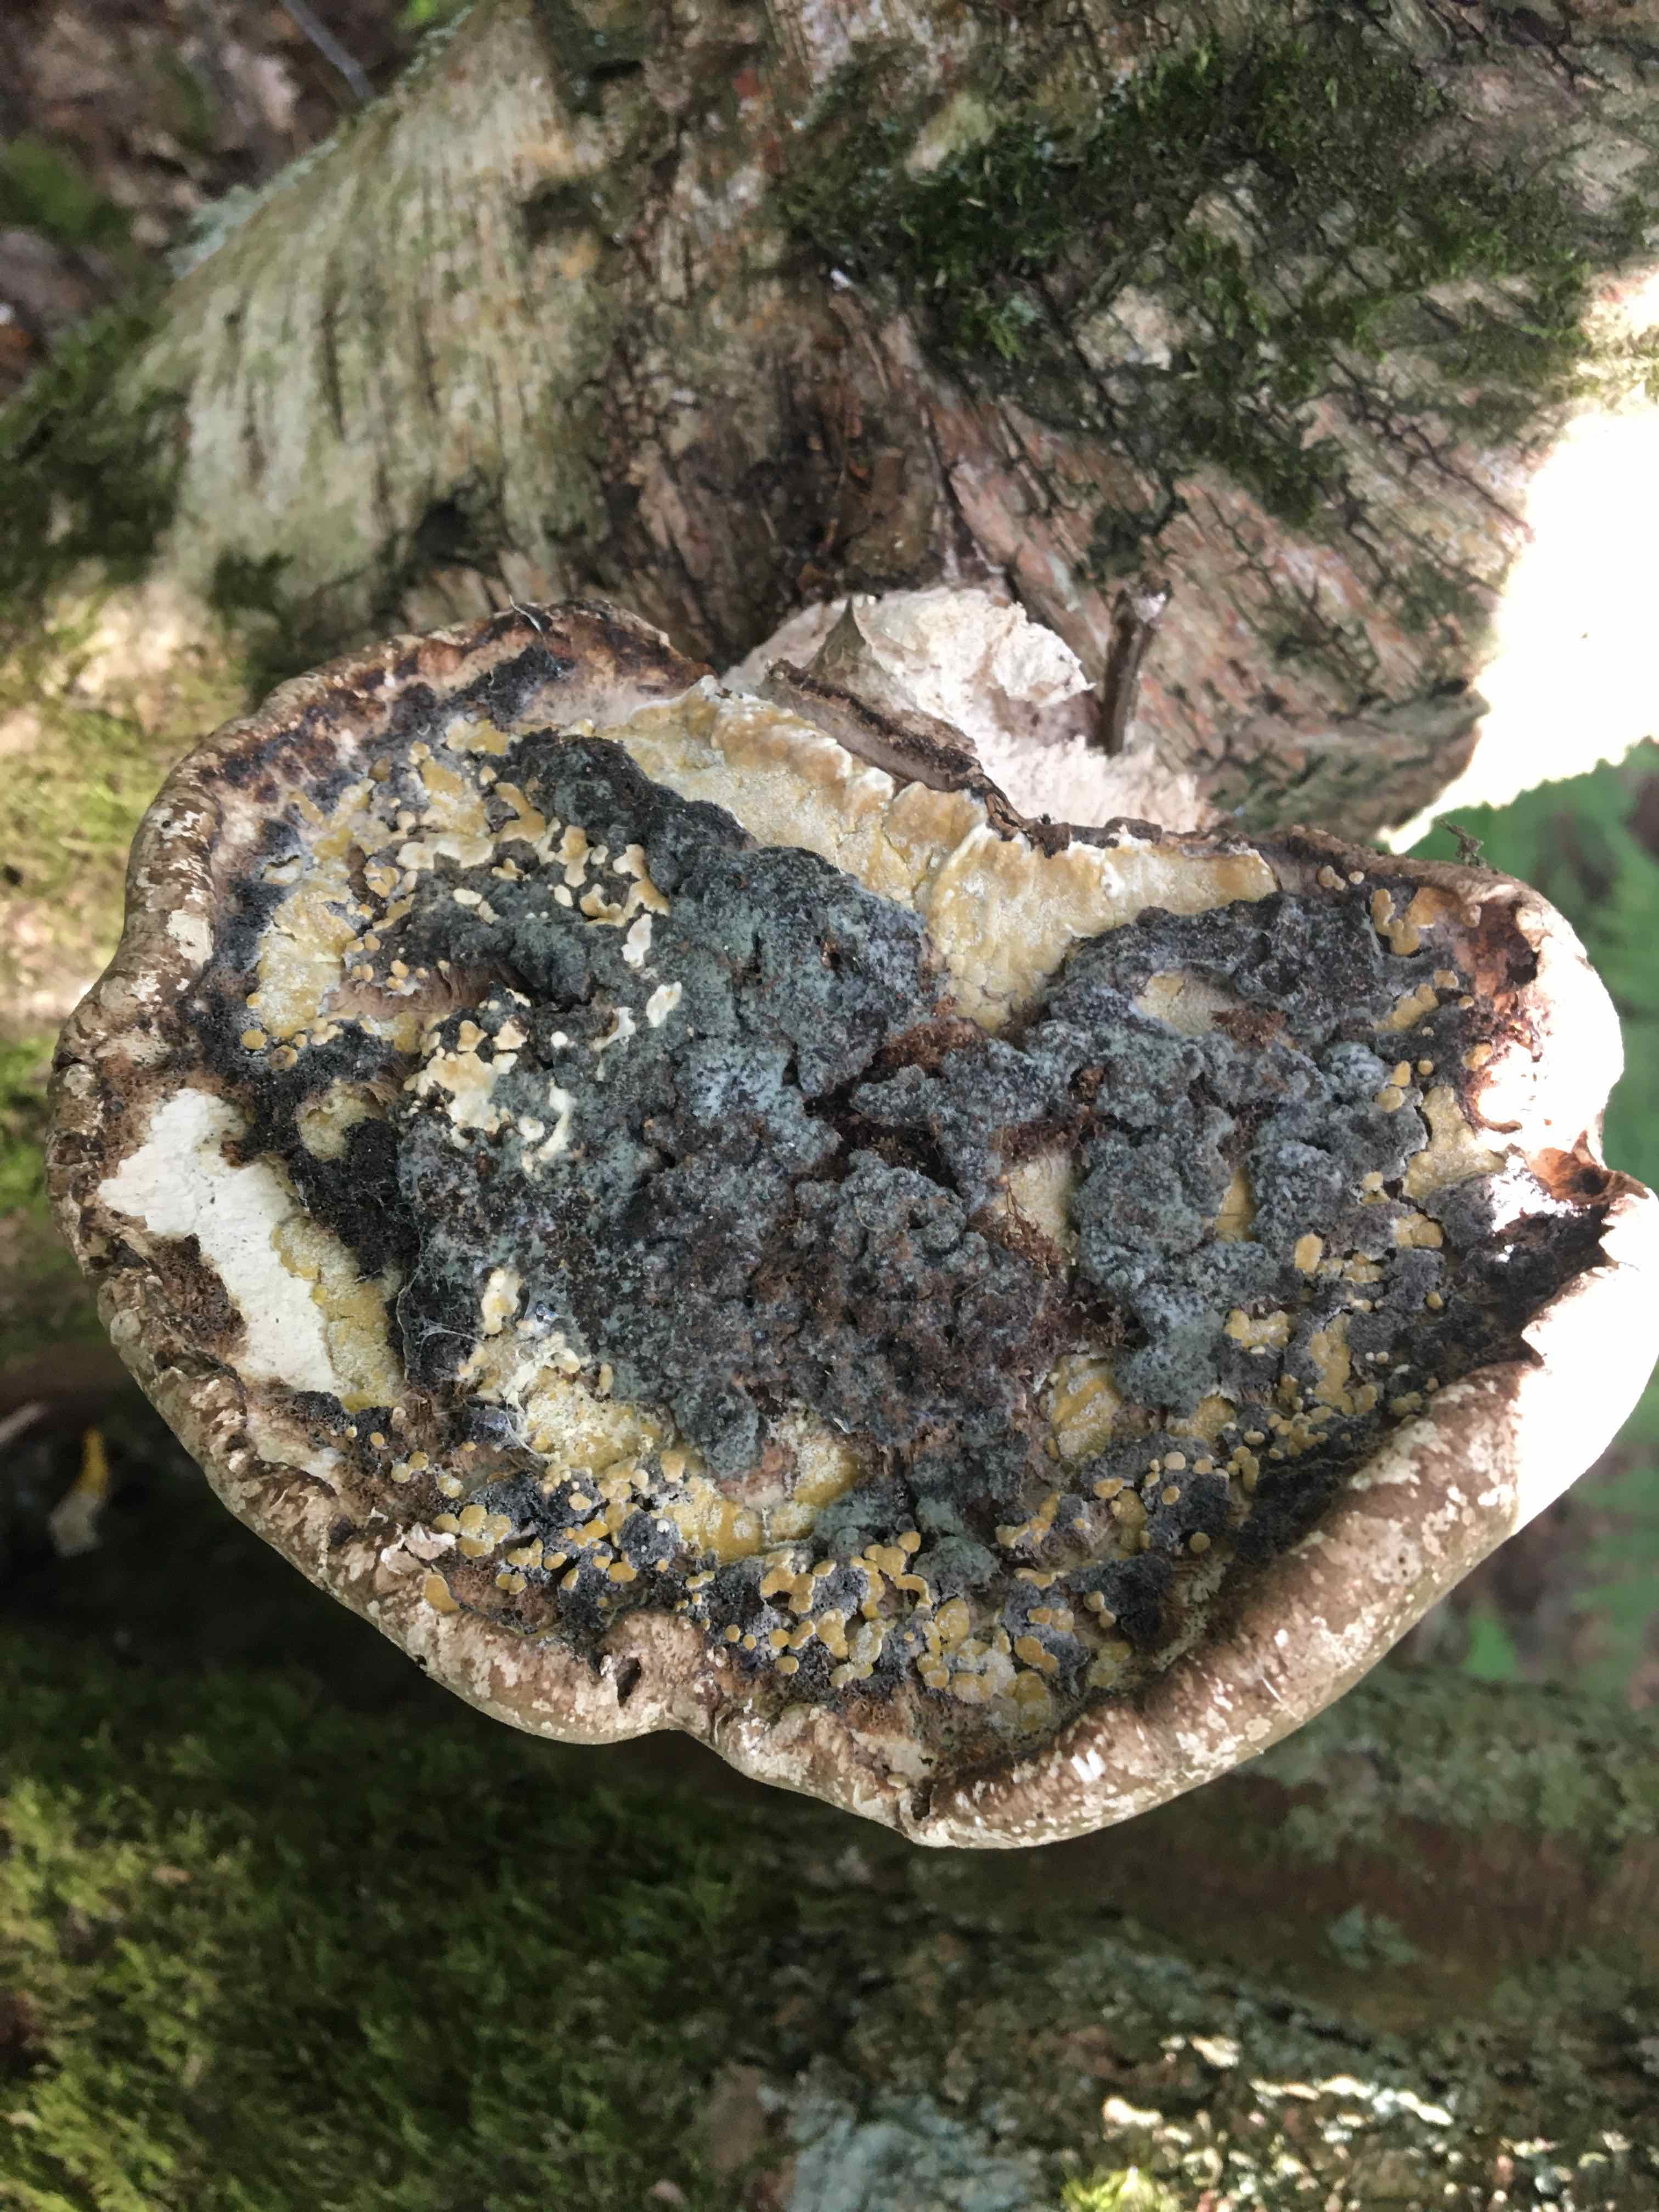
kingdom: Fungi
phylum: Basidiomycota
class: Agaricomycetes
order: Polyporales
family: Fomitopsidaceae
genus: Fomitopsis
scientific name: Fomitopsis betulina
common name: birkeporesvamp
